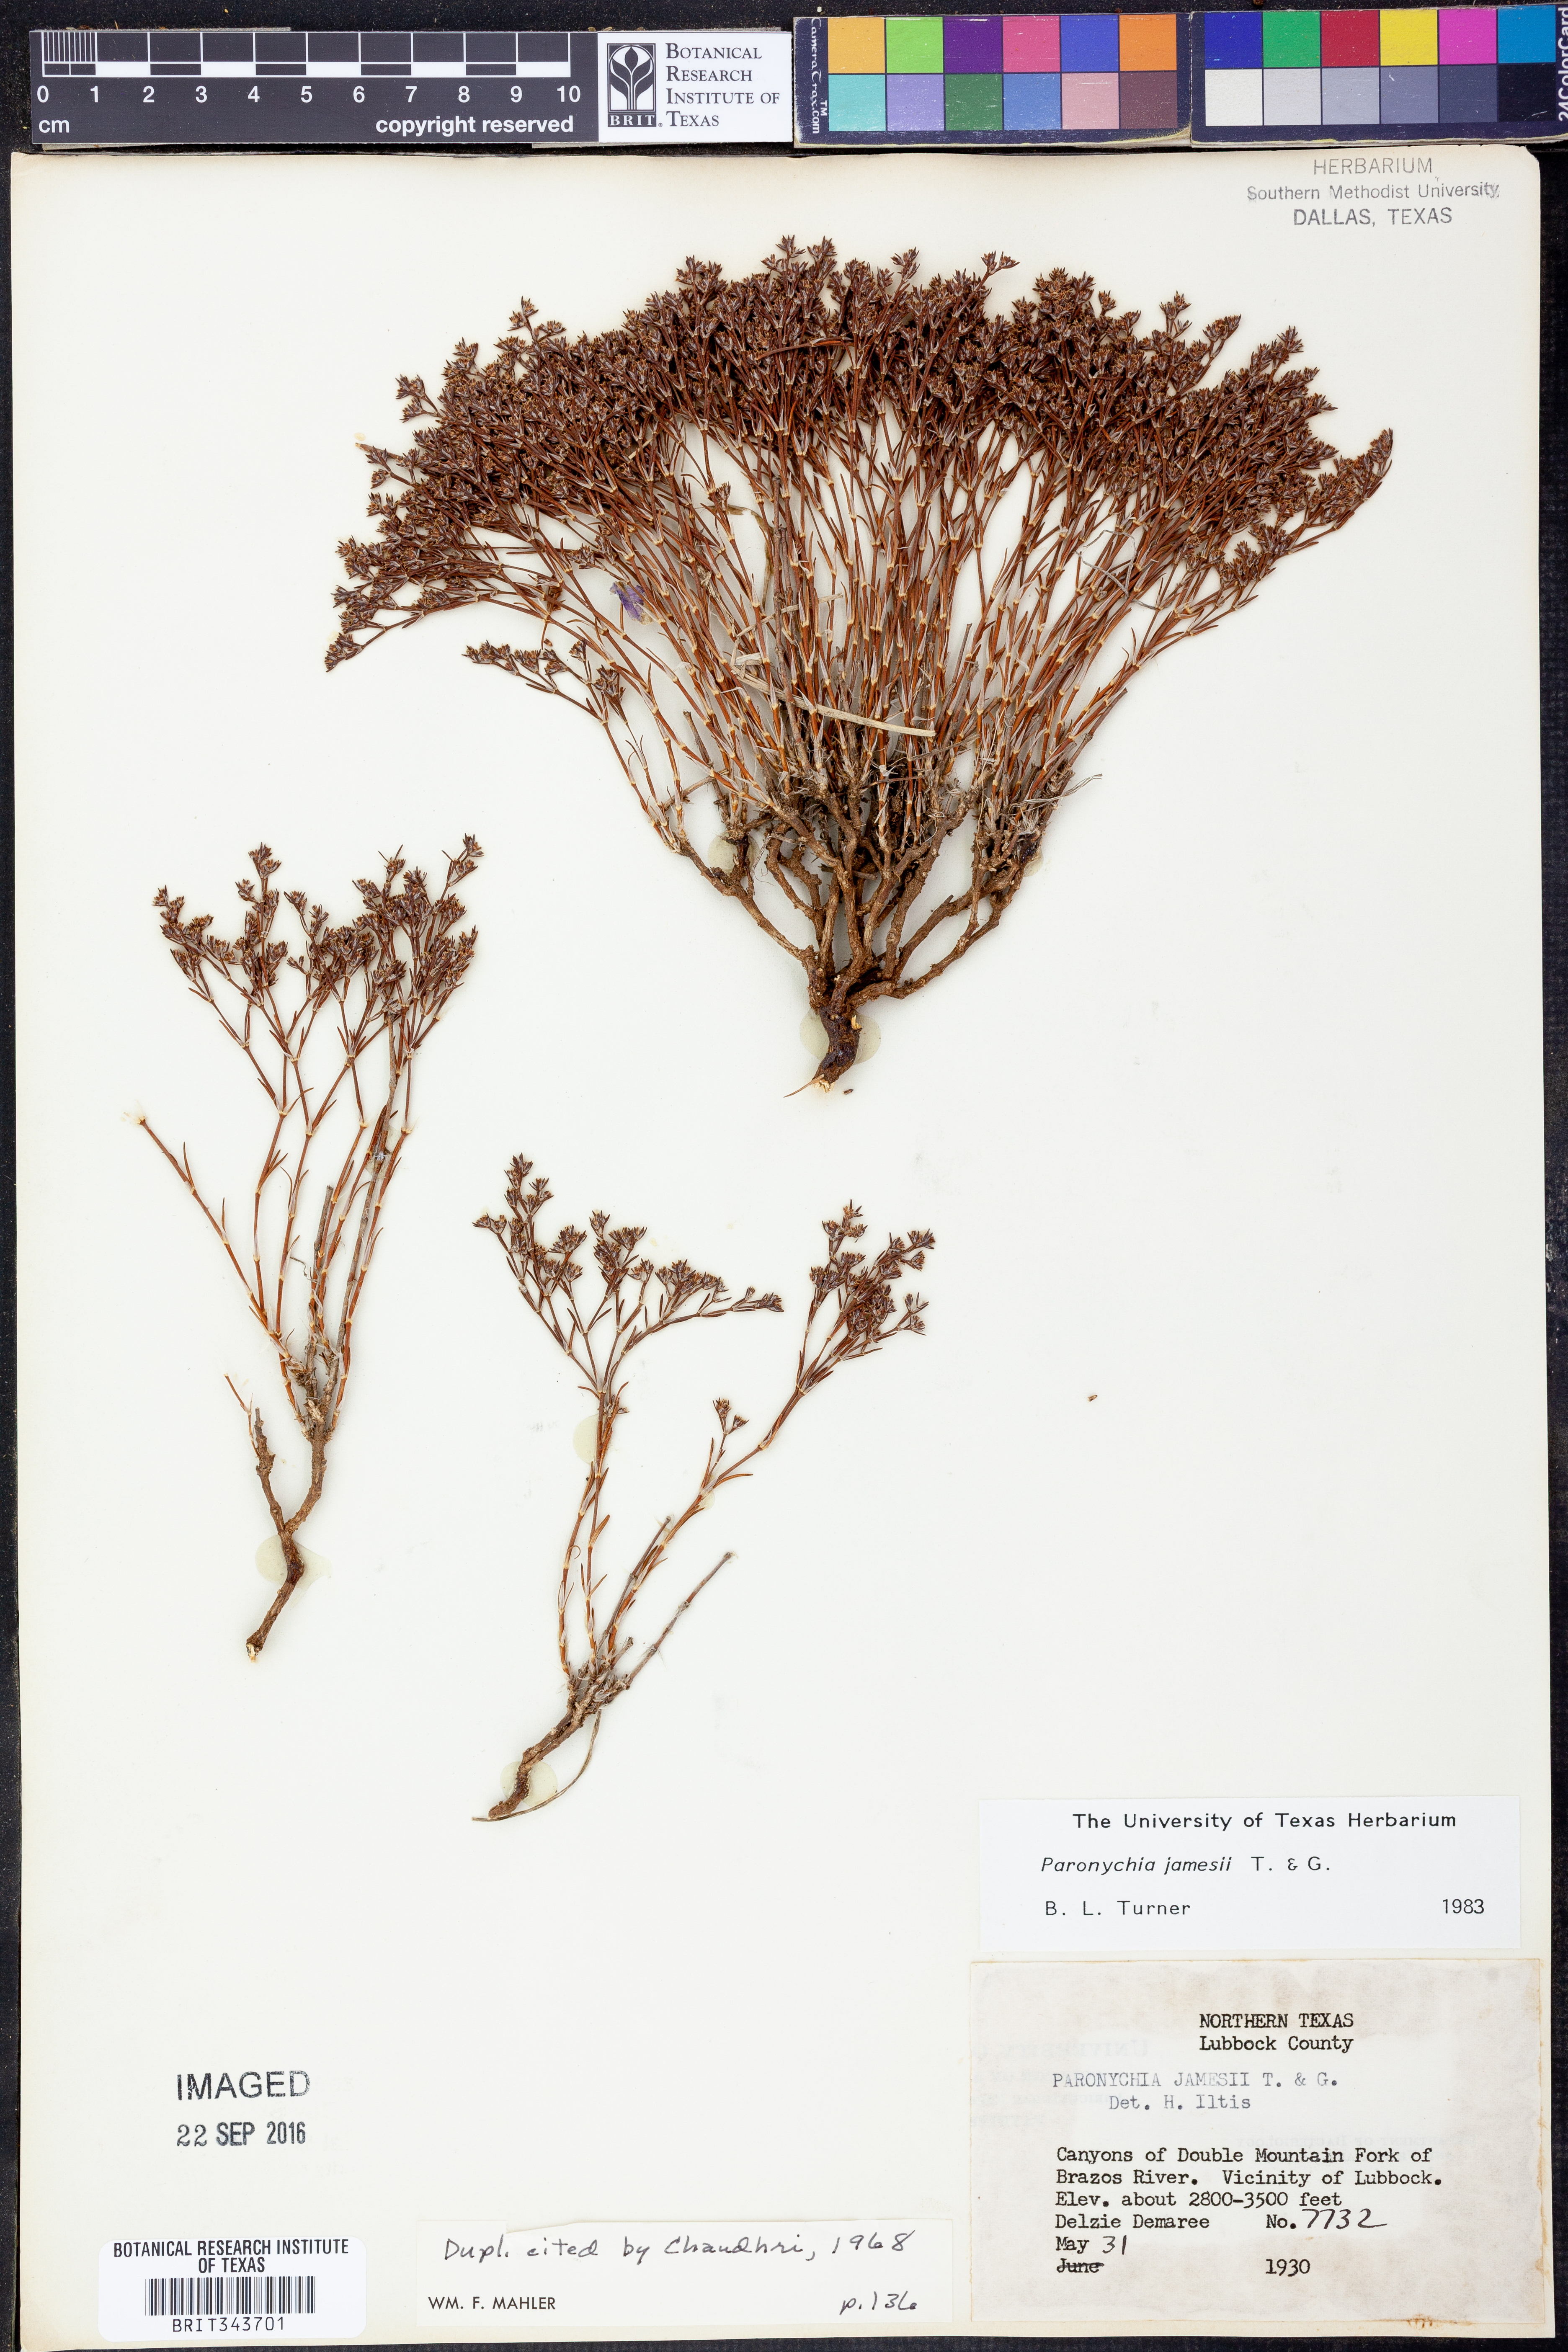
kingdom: Plantae
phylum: Tracheophyta
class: Magnoliopsida
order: Caryophyllales
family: Caryophyllaceae
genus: Paronychia
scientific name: Paronychia jamesii
